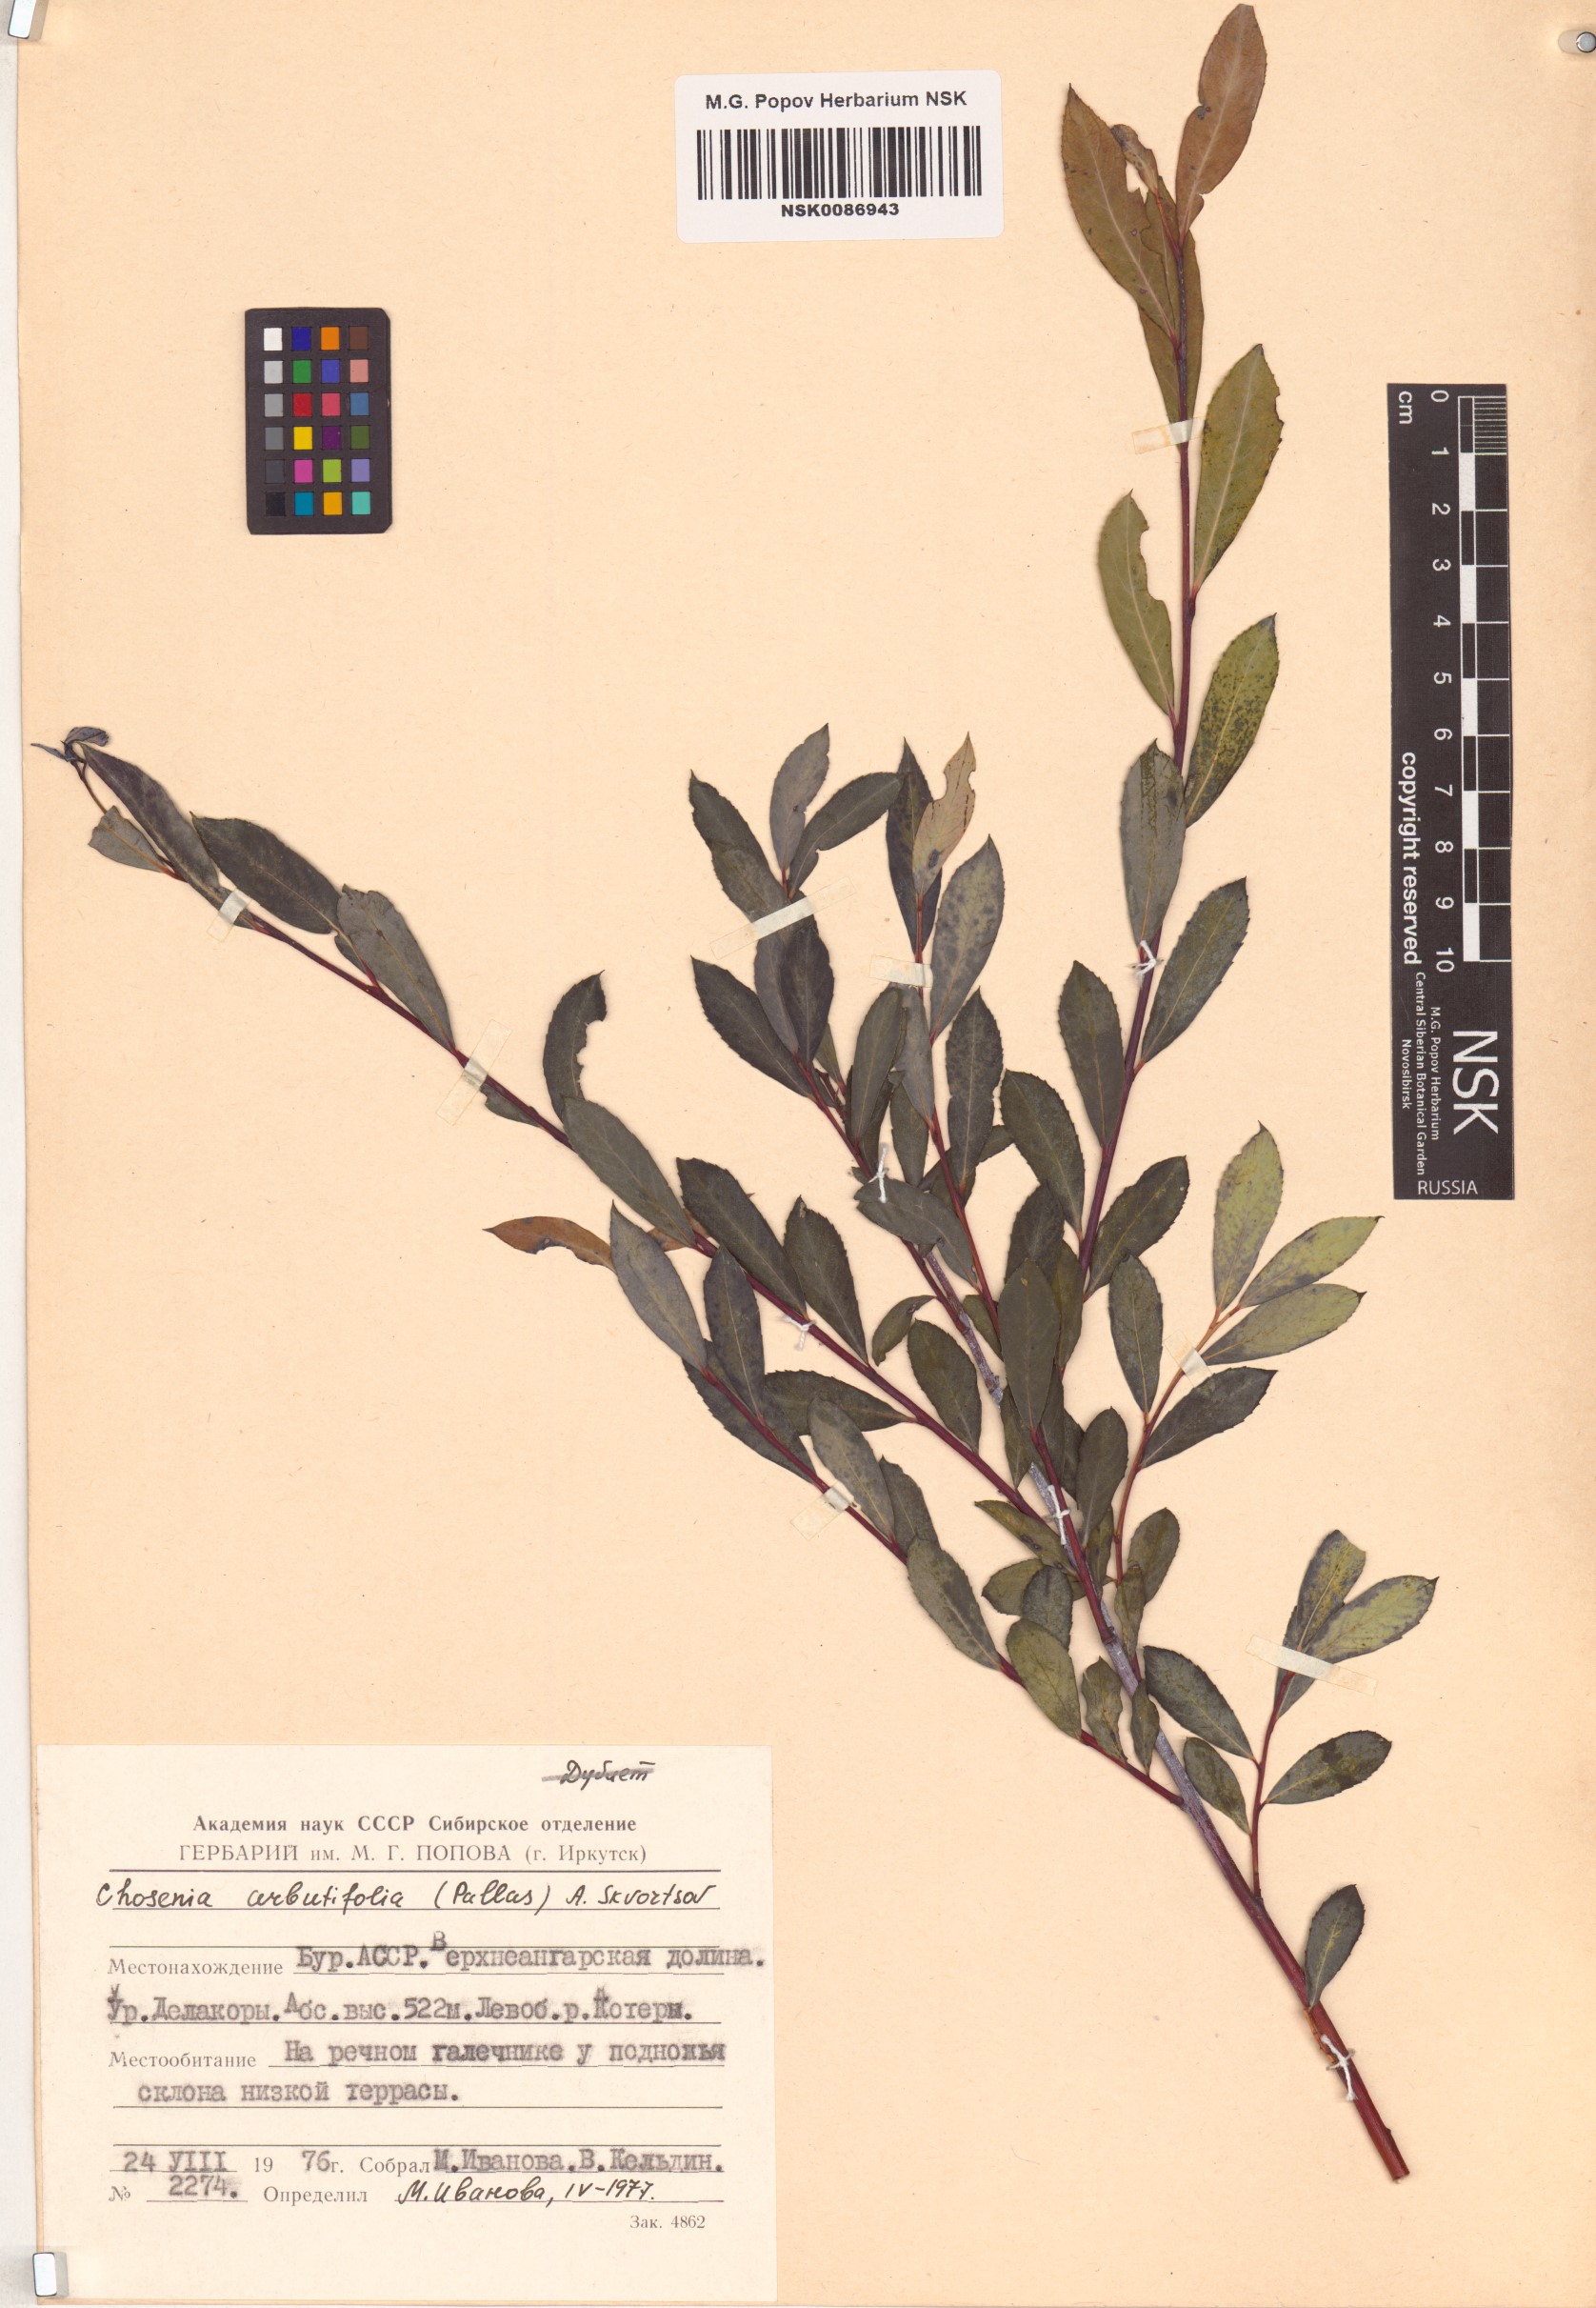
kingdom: Plantae
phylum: Tracheophyta
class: Magnoliopsida
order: Malpighiales
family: Salicaceae
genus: Chosenia
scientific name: Chosenia arbutifolia
